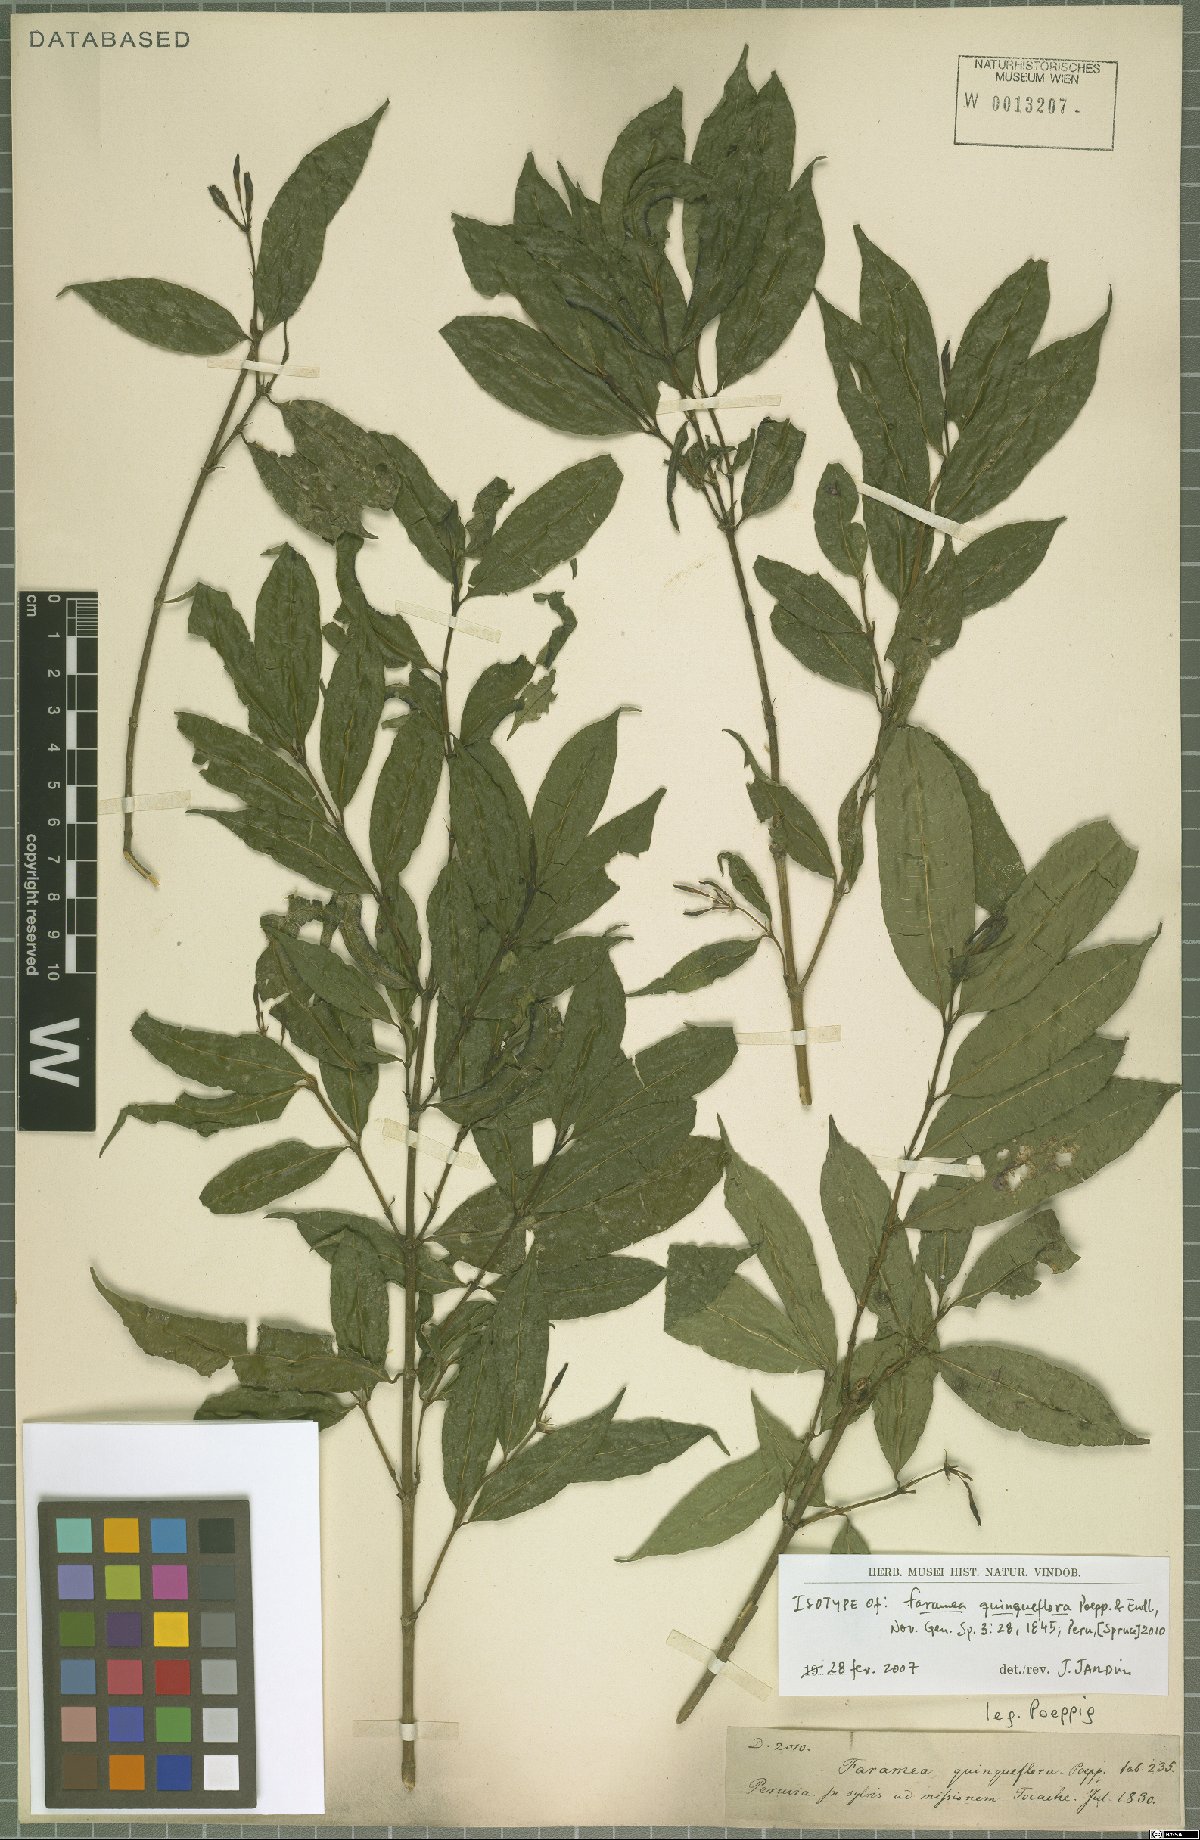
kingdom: Plantae
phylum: Tracheophyta
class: Magnoliopsida
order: Gentianales
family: Rubiaceae
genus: Faramea
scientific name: Faramea quinqueflora
